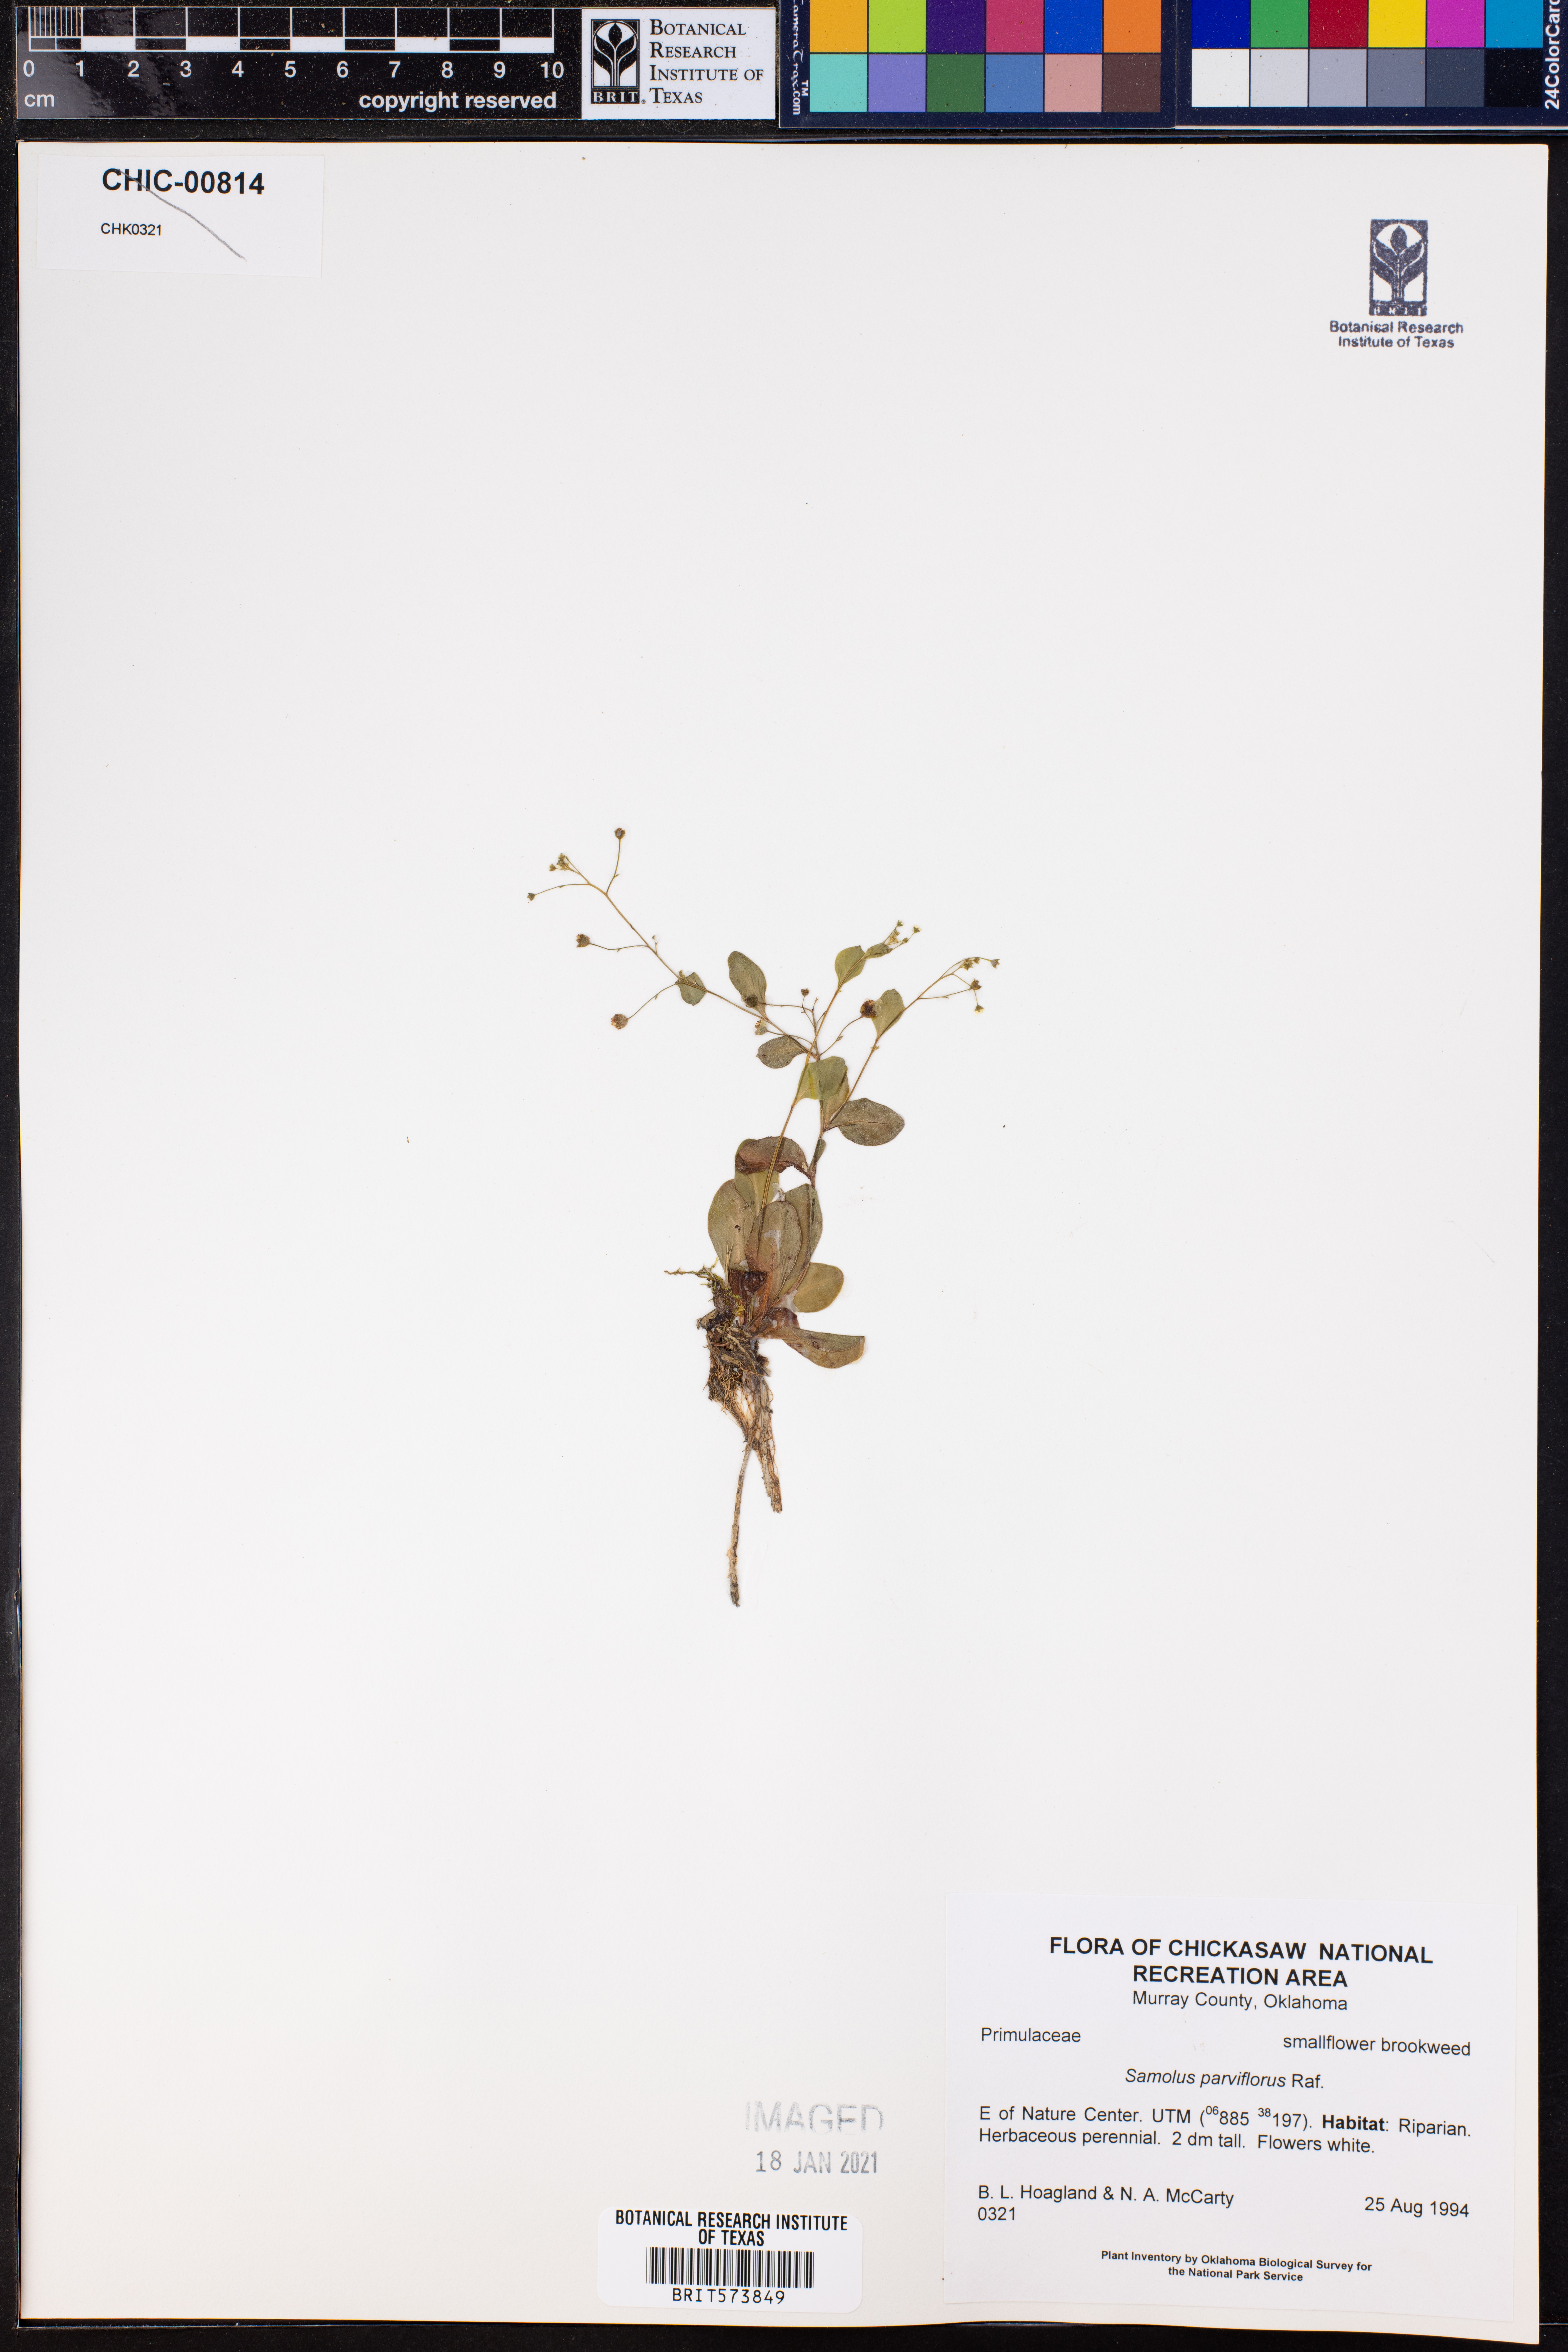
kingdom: Plantae
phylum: Tracheophyta
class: Magnoliopsida
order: Ericales
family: Primulaceae
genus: Samolus
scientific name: Samolus parviflorus
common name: False water pimpernel
